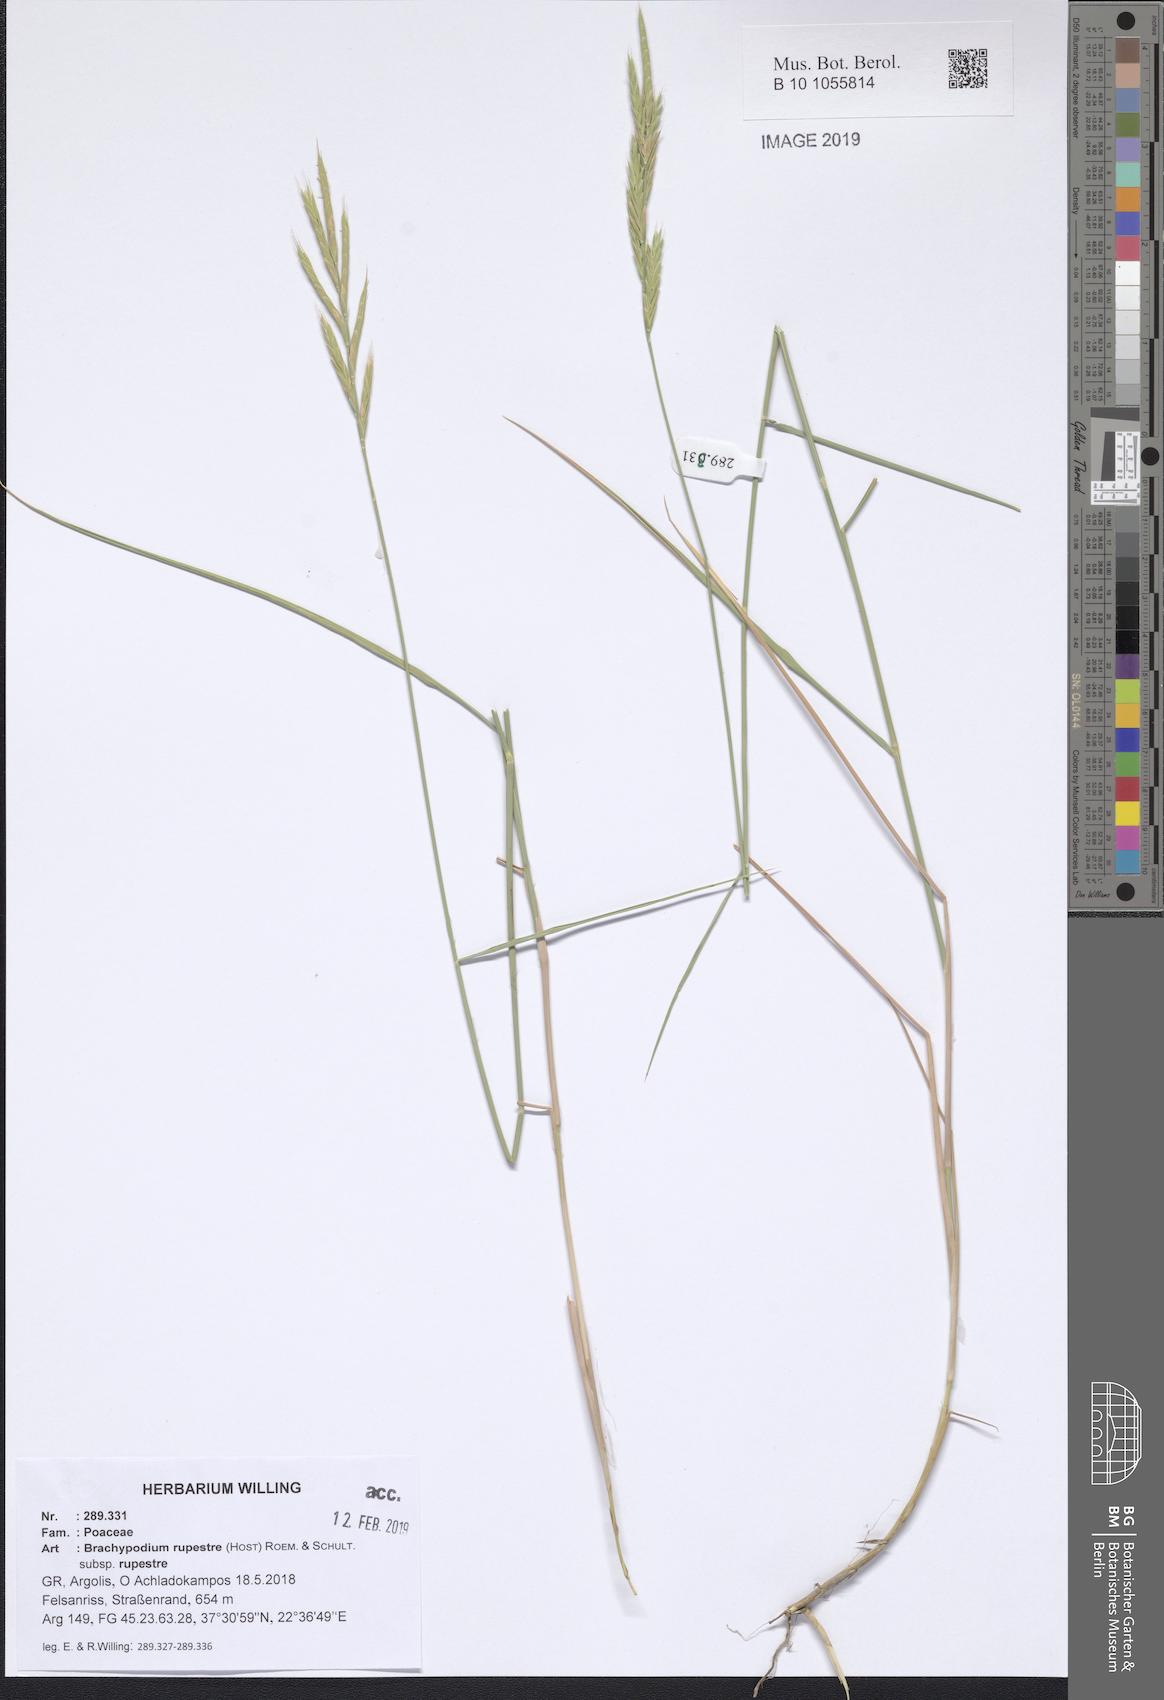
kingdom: Plantae
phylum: Tracheophyta
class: Liliopsida
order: Poales
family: Poaceae
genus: Brachypodium
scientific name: Brachypodium pinnatum
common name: Tor grass
